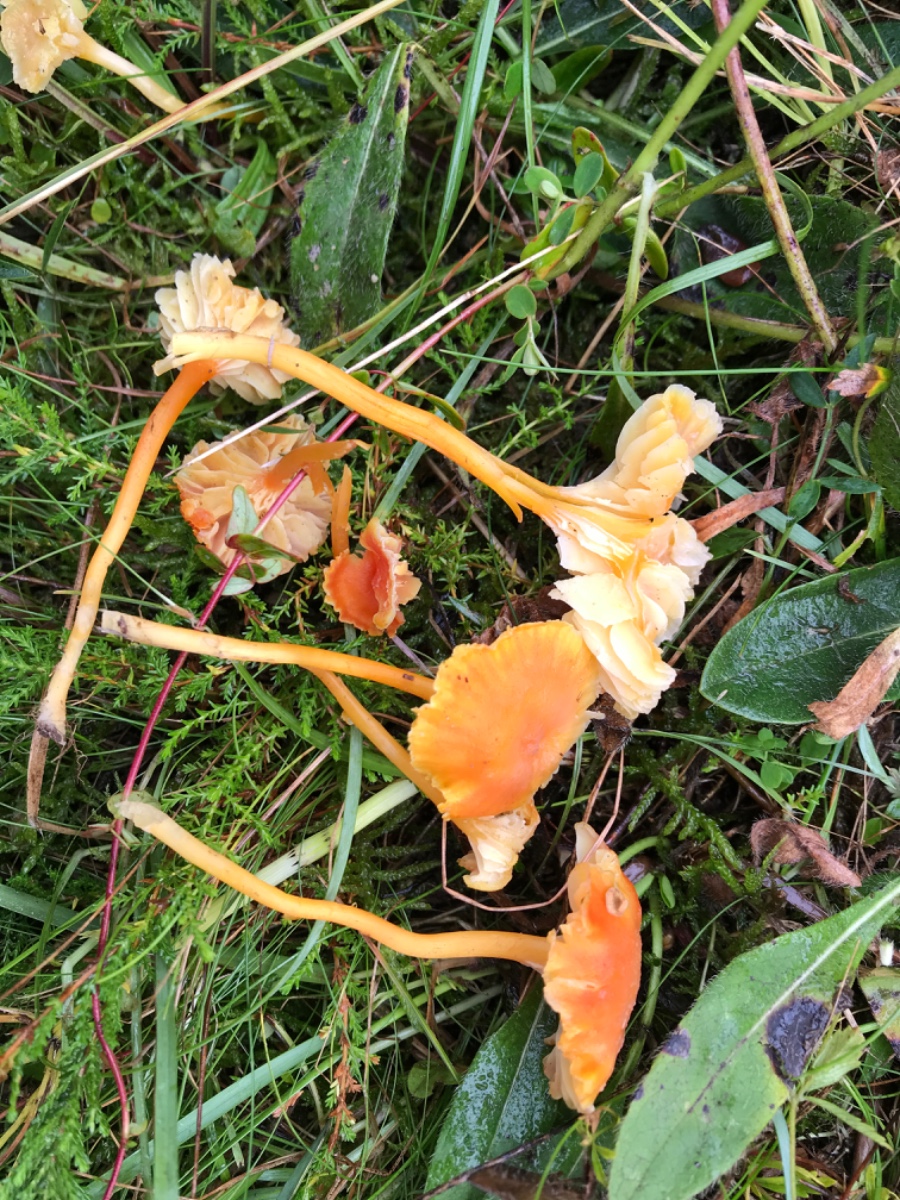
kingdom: Fungi
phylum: Basidiomycota
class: Agaricomycetes
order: Agaricales
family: Hygrophoraceae
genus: Hygrocybe
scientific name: Hygrocybe cantharellus
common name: kantarel-vokshat
